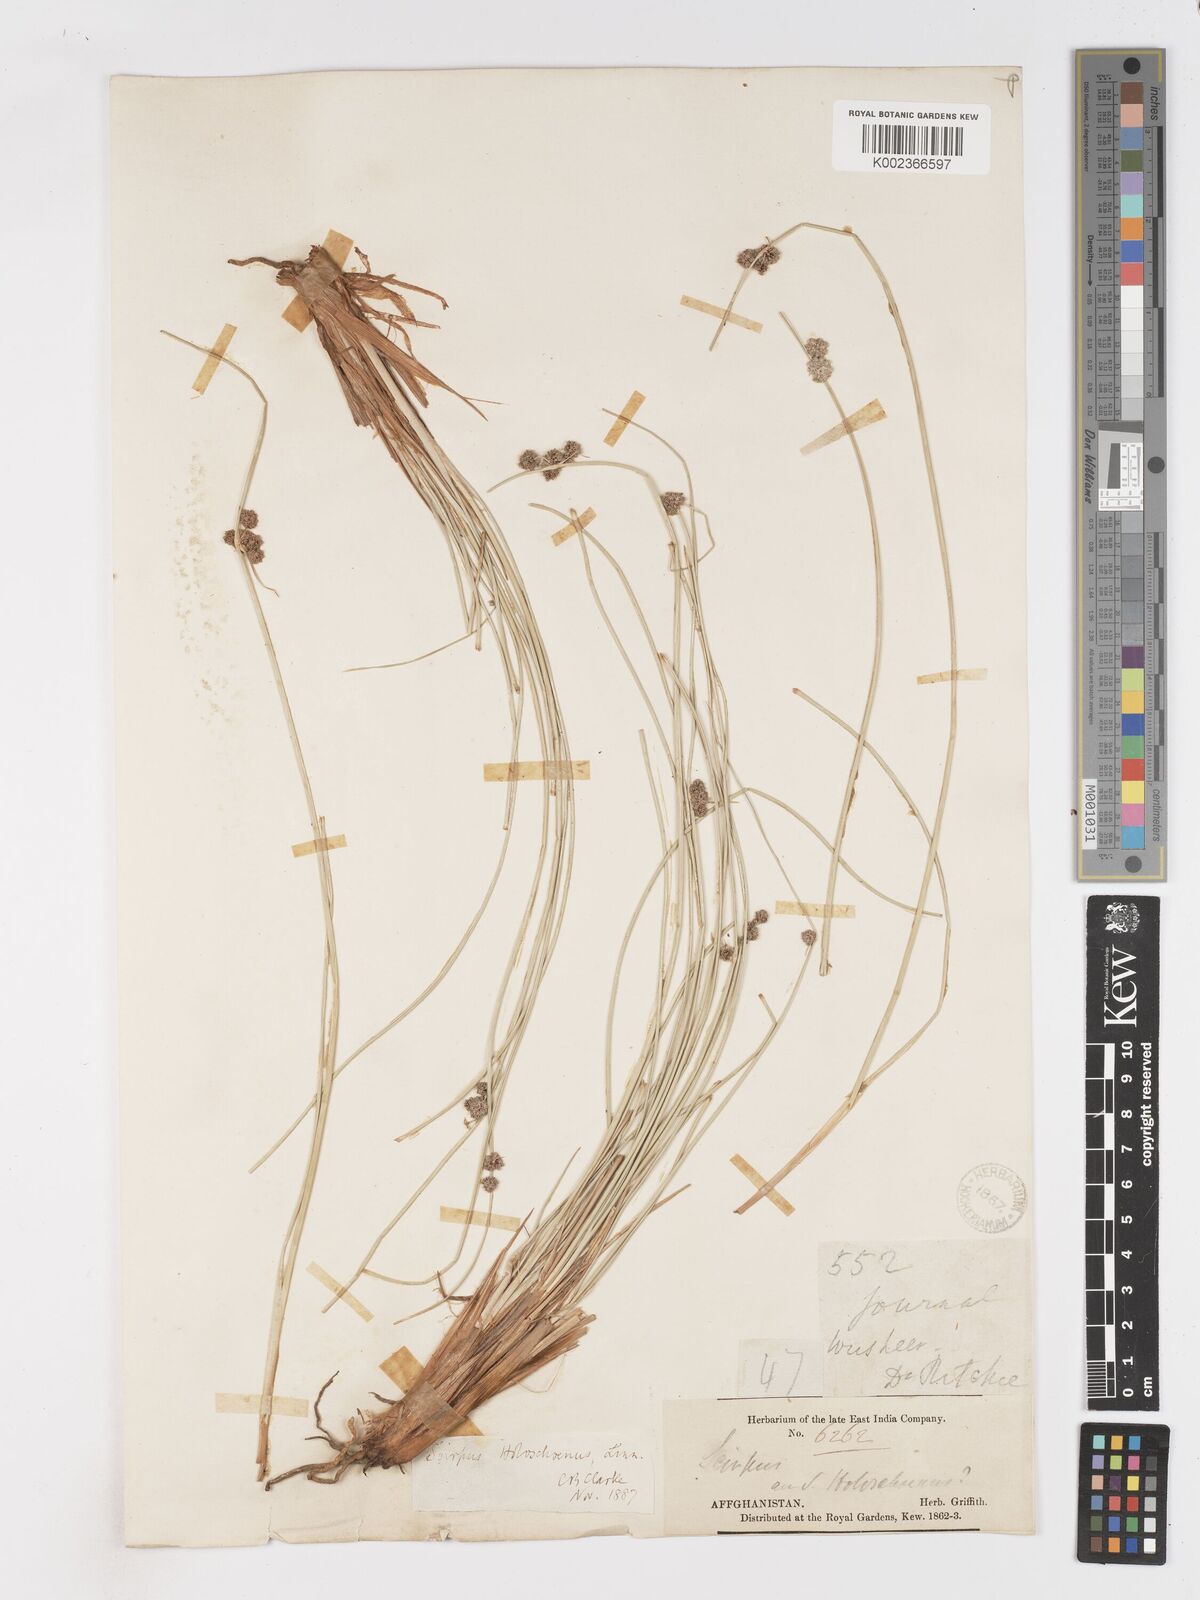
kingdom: Plantae
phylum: Tracheophyta
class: Liliopsida
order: Poales
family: Cyperaceae
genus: Scirpoides
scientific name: Scirpoides holoschoenus
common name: Round-headed club-rush
